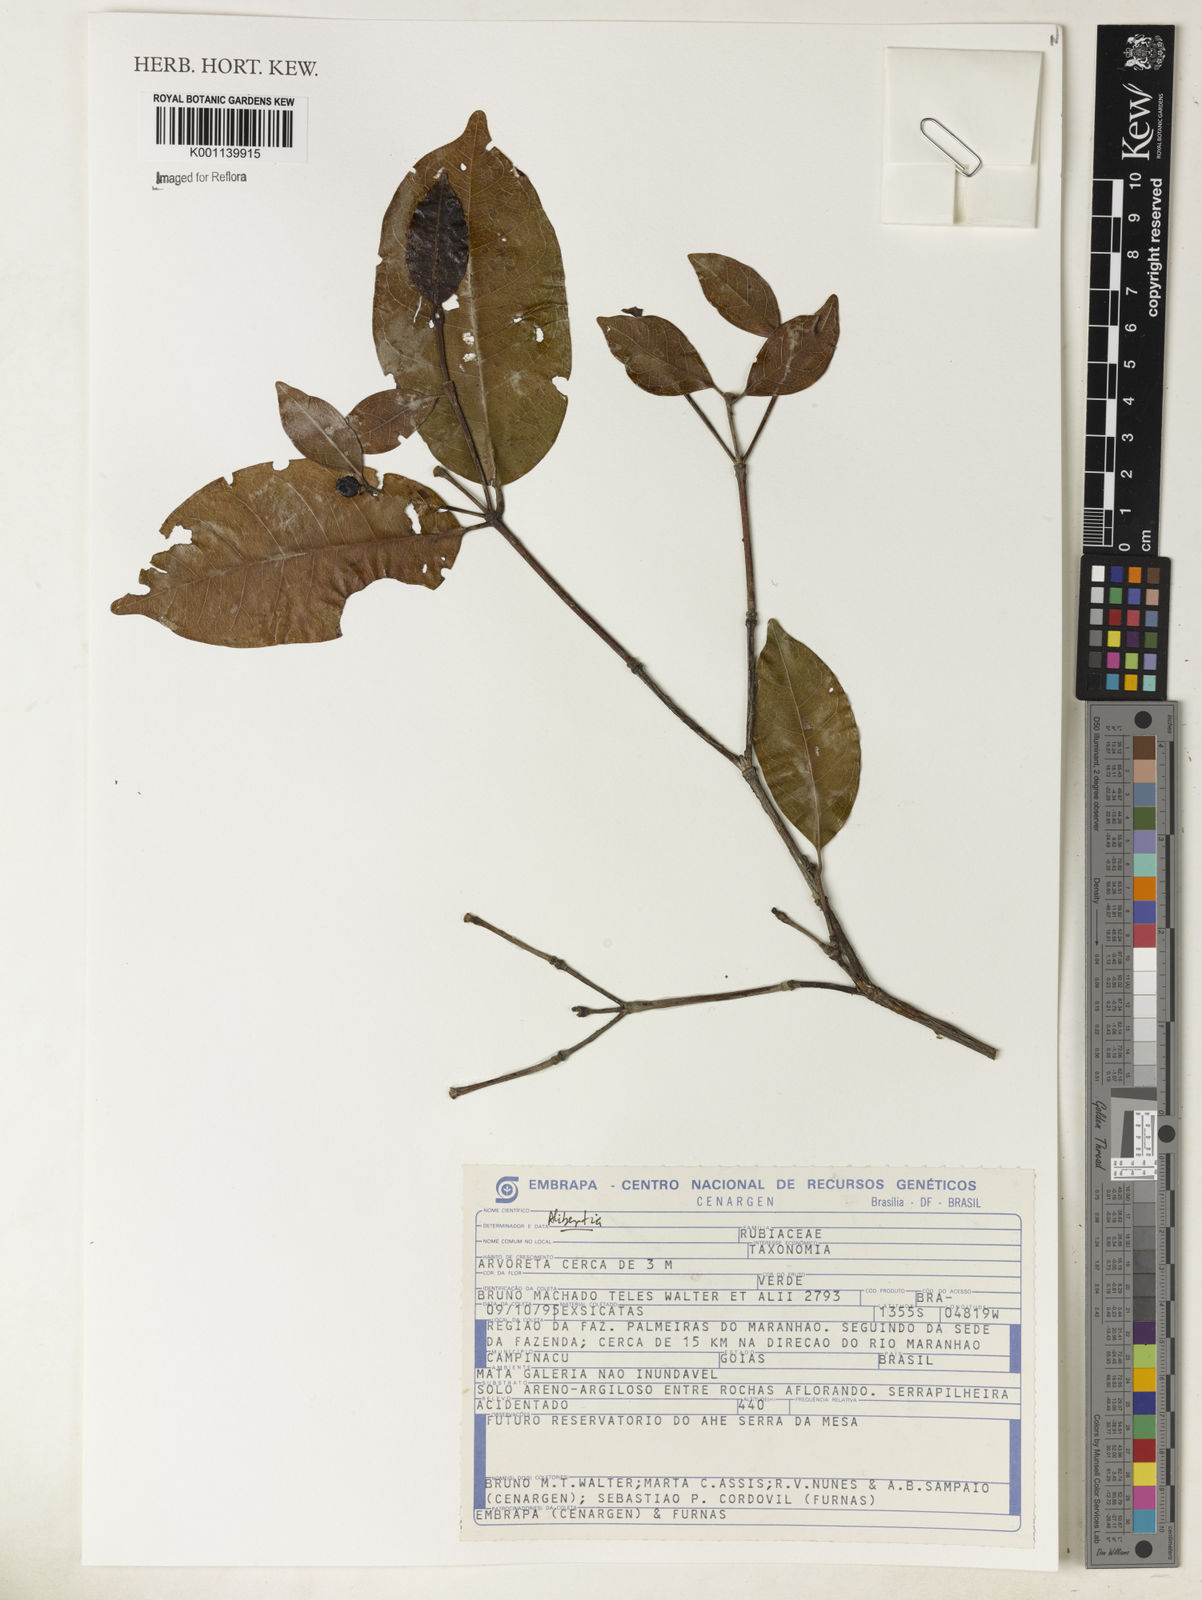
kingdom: Plantae
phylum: Tracheophyta
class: Magnoliopsida
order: Gentianales
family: Rubiaceae
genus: Alibertia
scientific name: Alibertia
